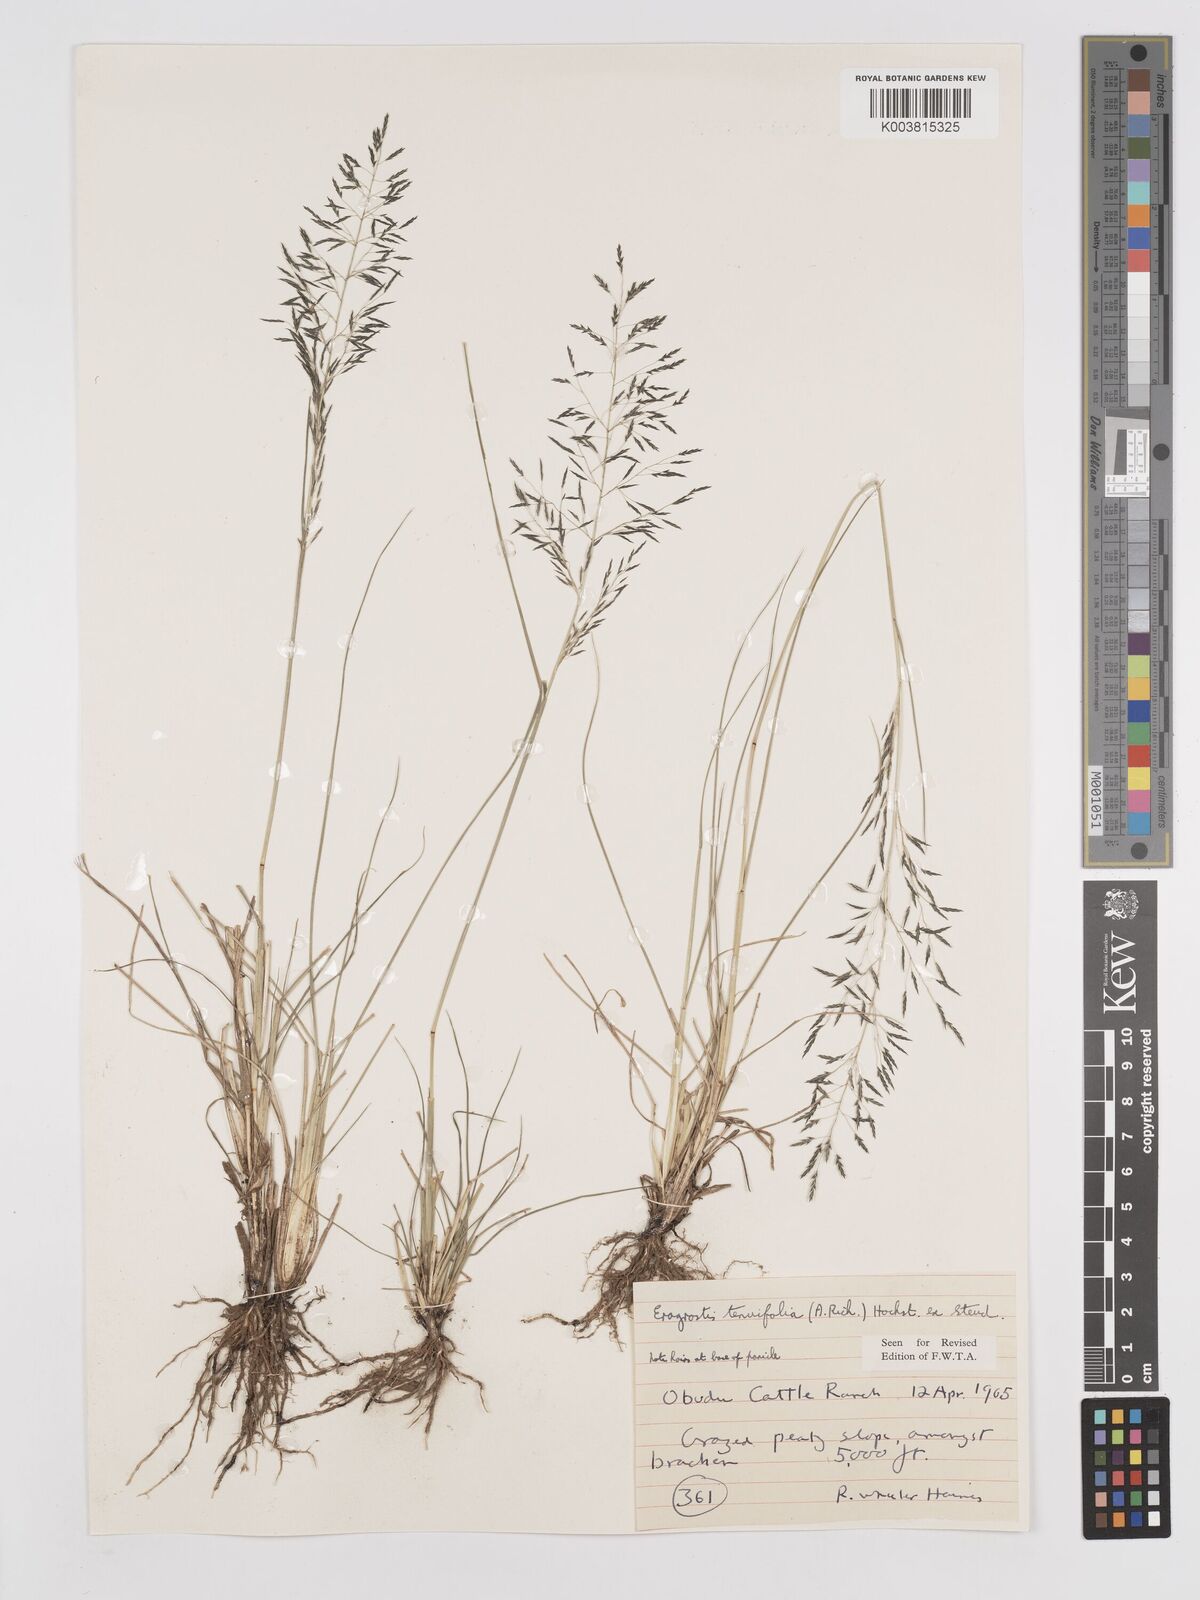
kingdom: Plantae
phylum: Tracheophyta
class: Liliopsida
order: Poales
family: Poaceae
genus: Eragrostis
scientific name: Eragrostis tenuifolia
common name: Elastic grass
